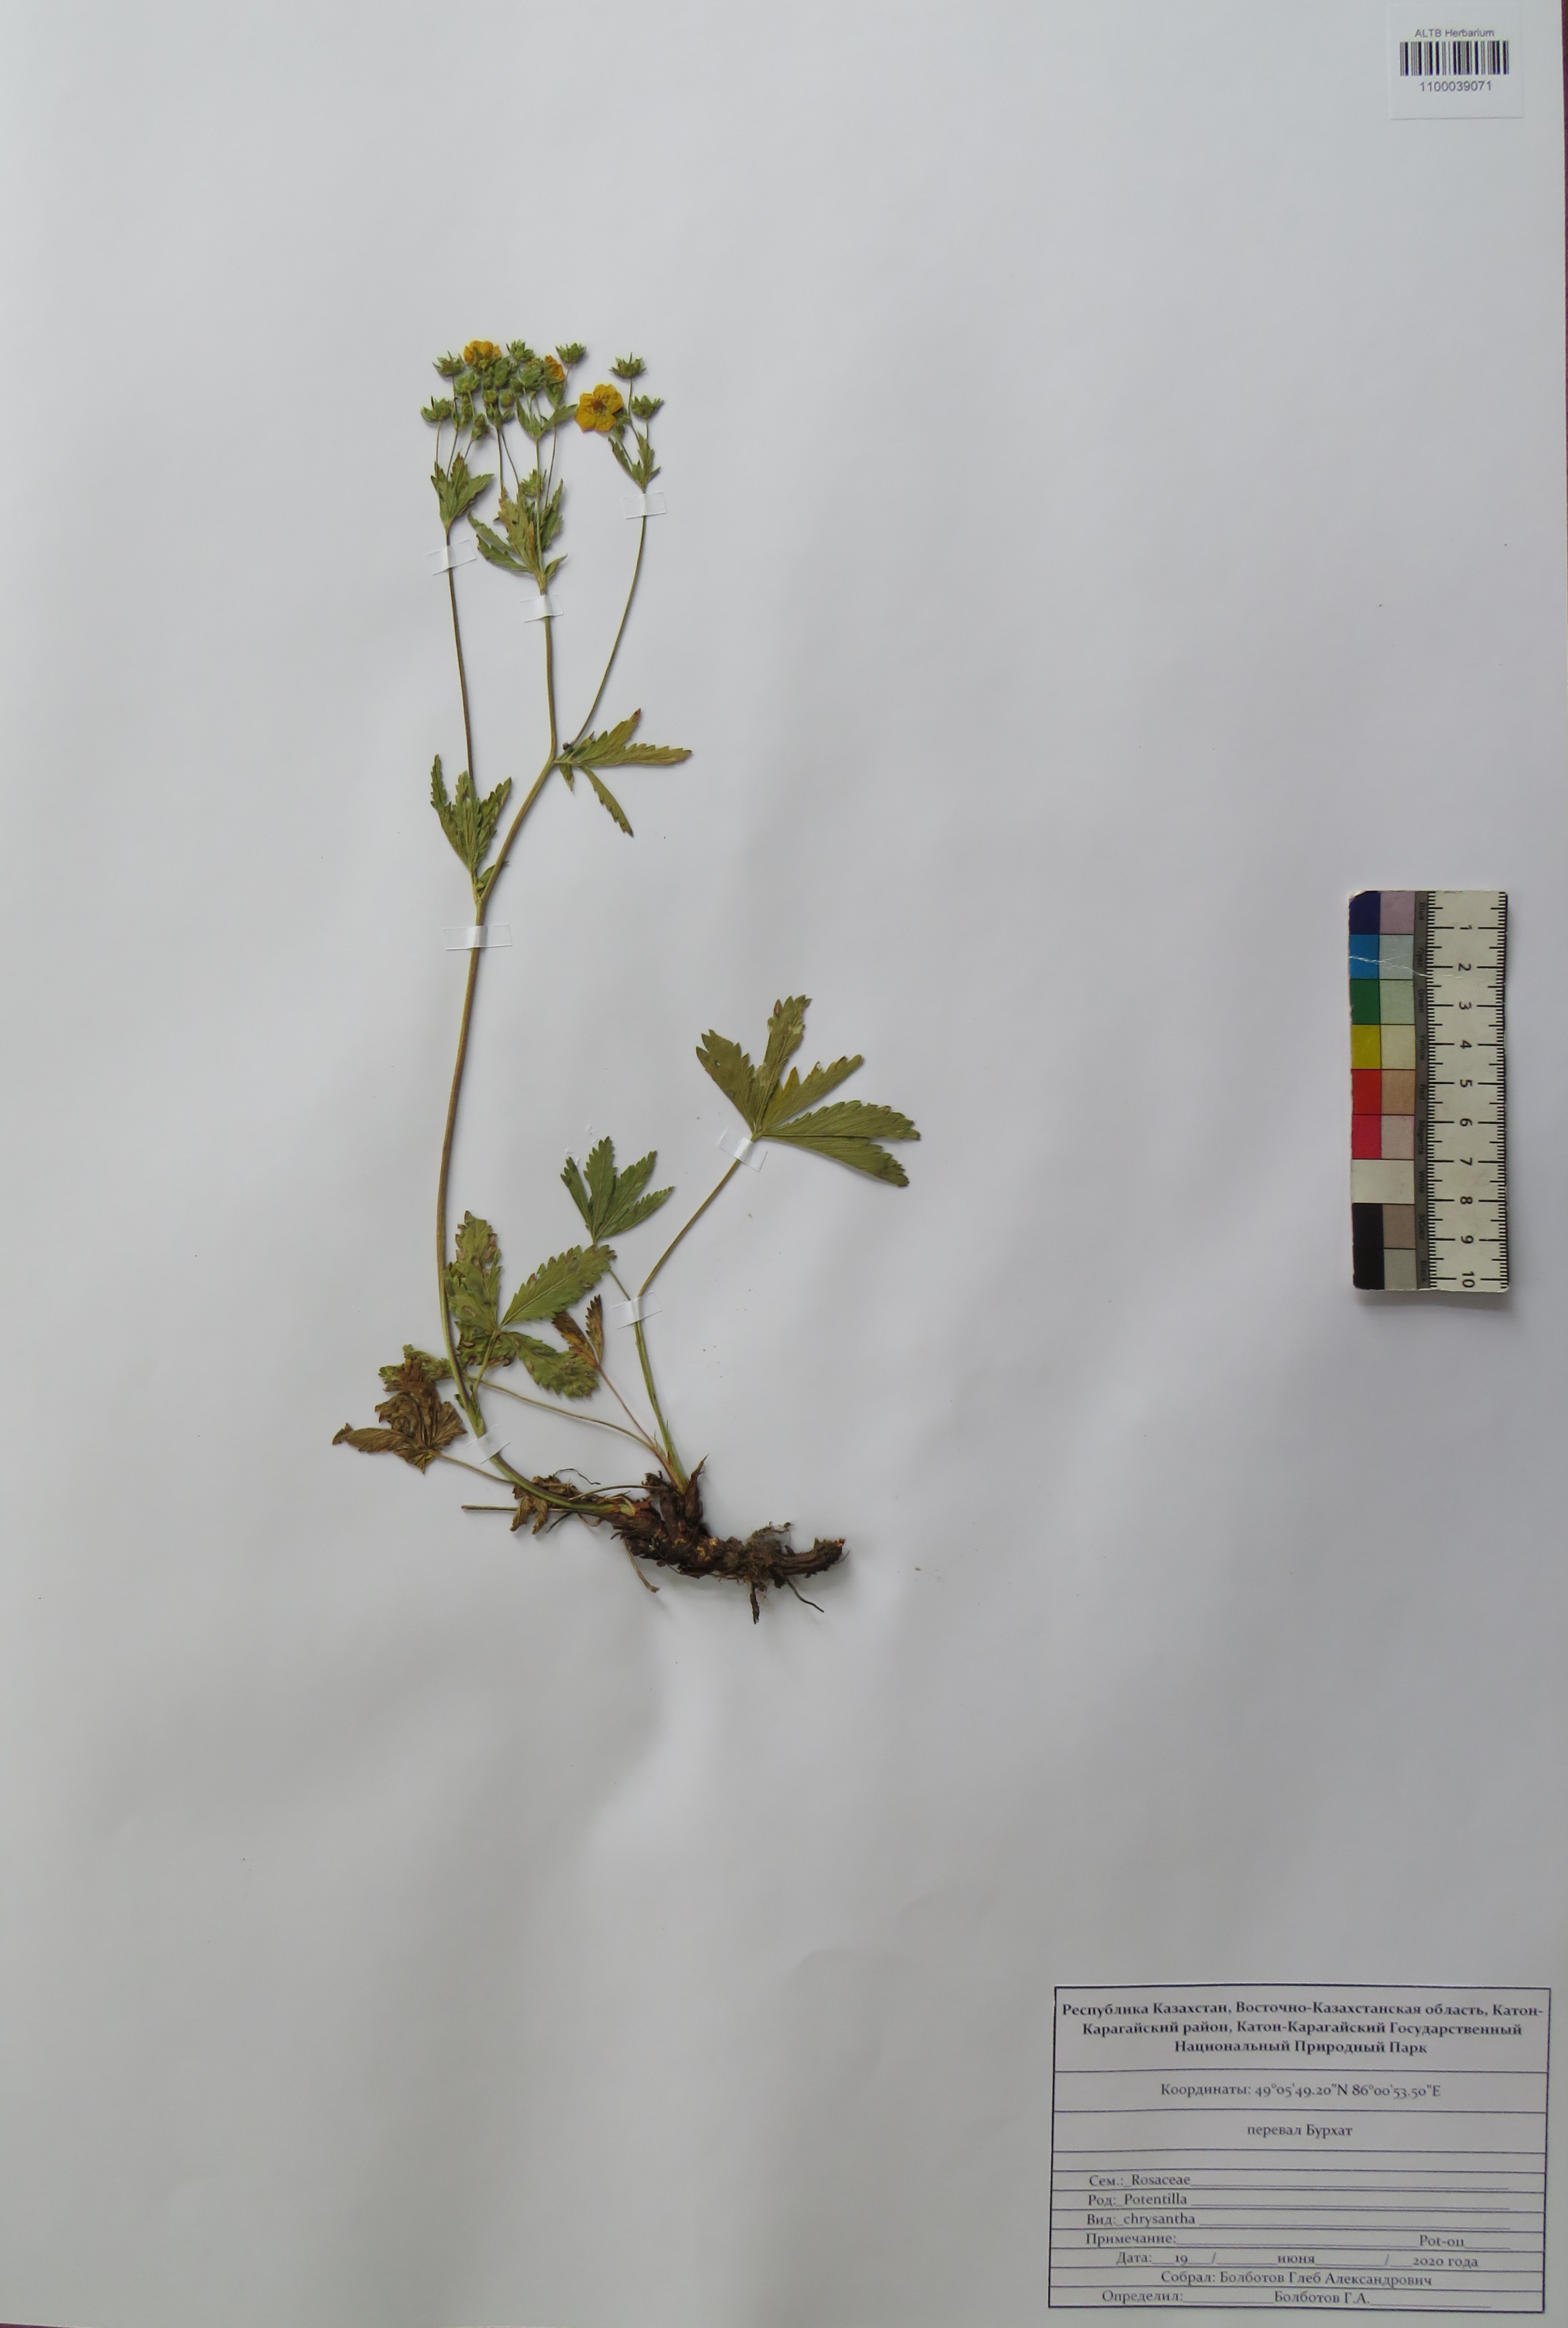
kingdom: Plantae
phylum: Tracheophyta
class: Magnoliopsida
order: Rosales
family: Rosaceae
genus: Potentilla
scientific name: Potentilla chrysantha
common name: Thuringian cinquefoil
